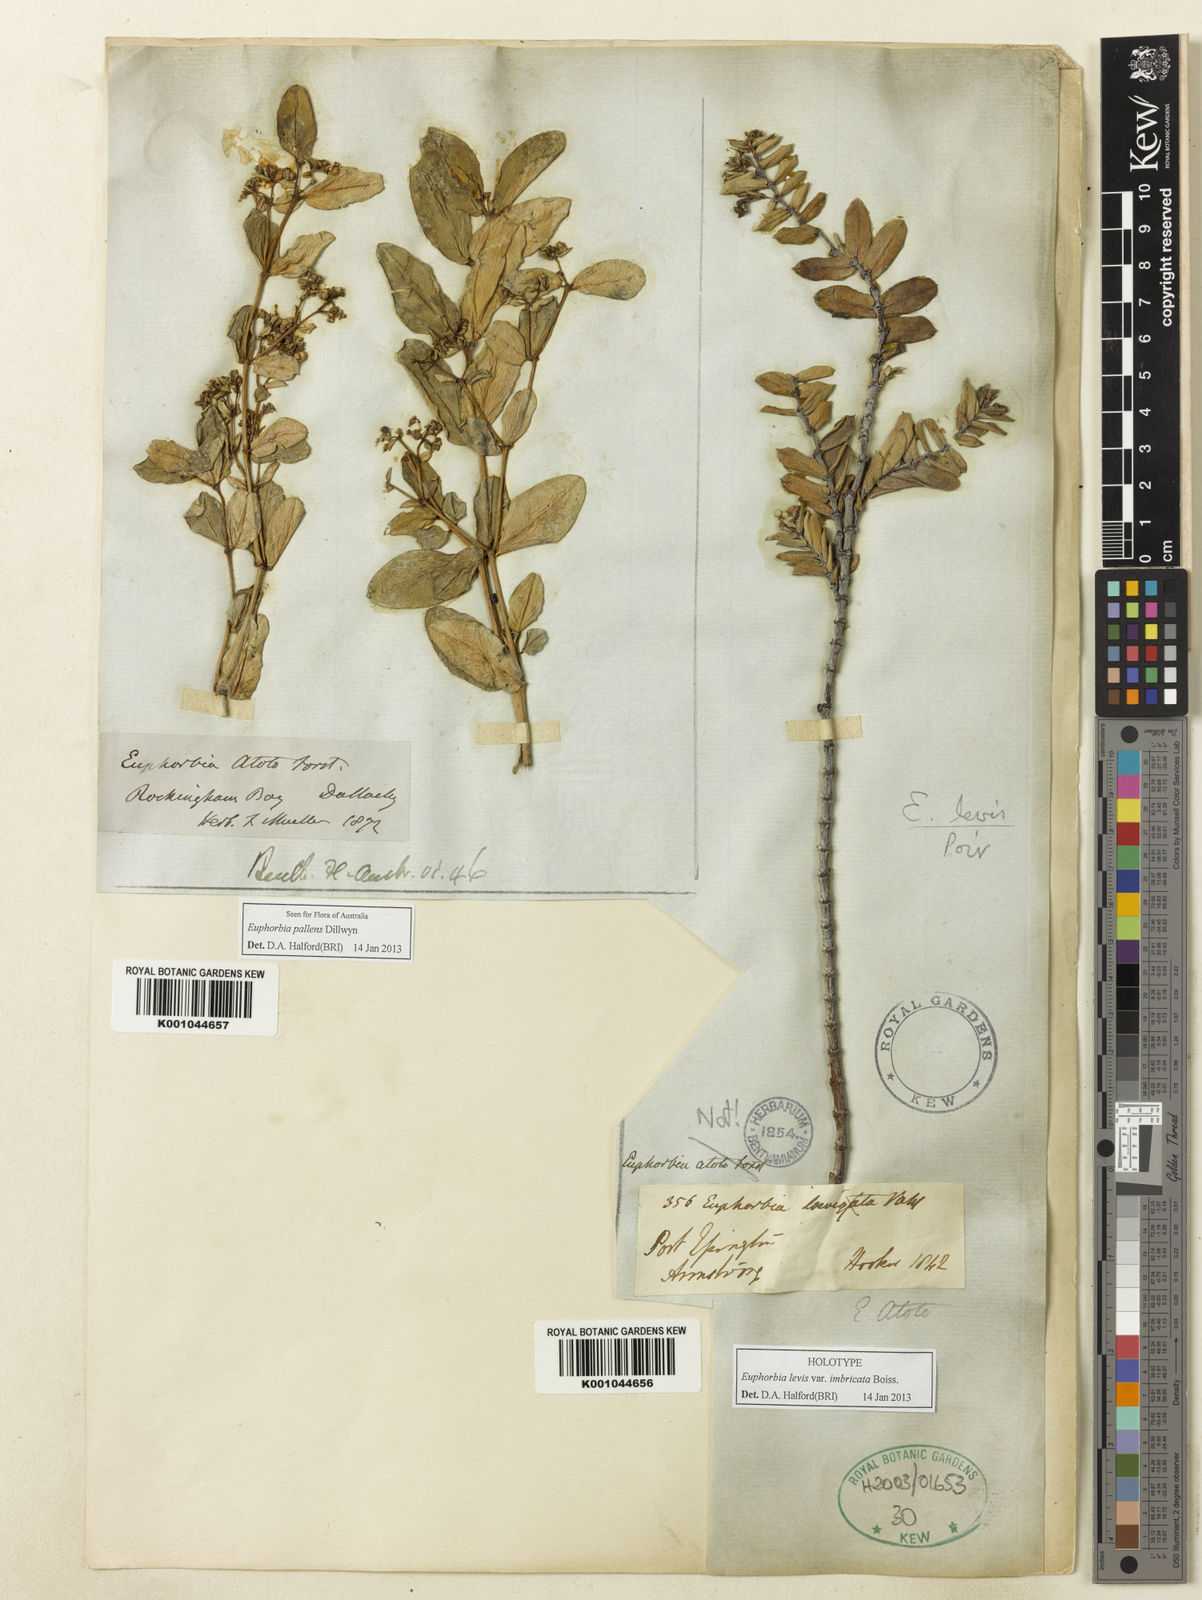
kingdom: Plantae
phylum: Tracheophyta
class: Magnoliopsida
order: Malpighiales
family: Euphorbiaceae
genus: Euphorbia
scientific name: Euphorbia pallens
